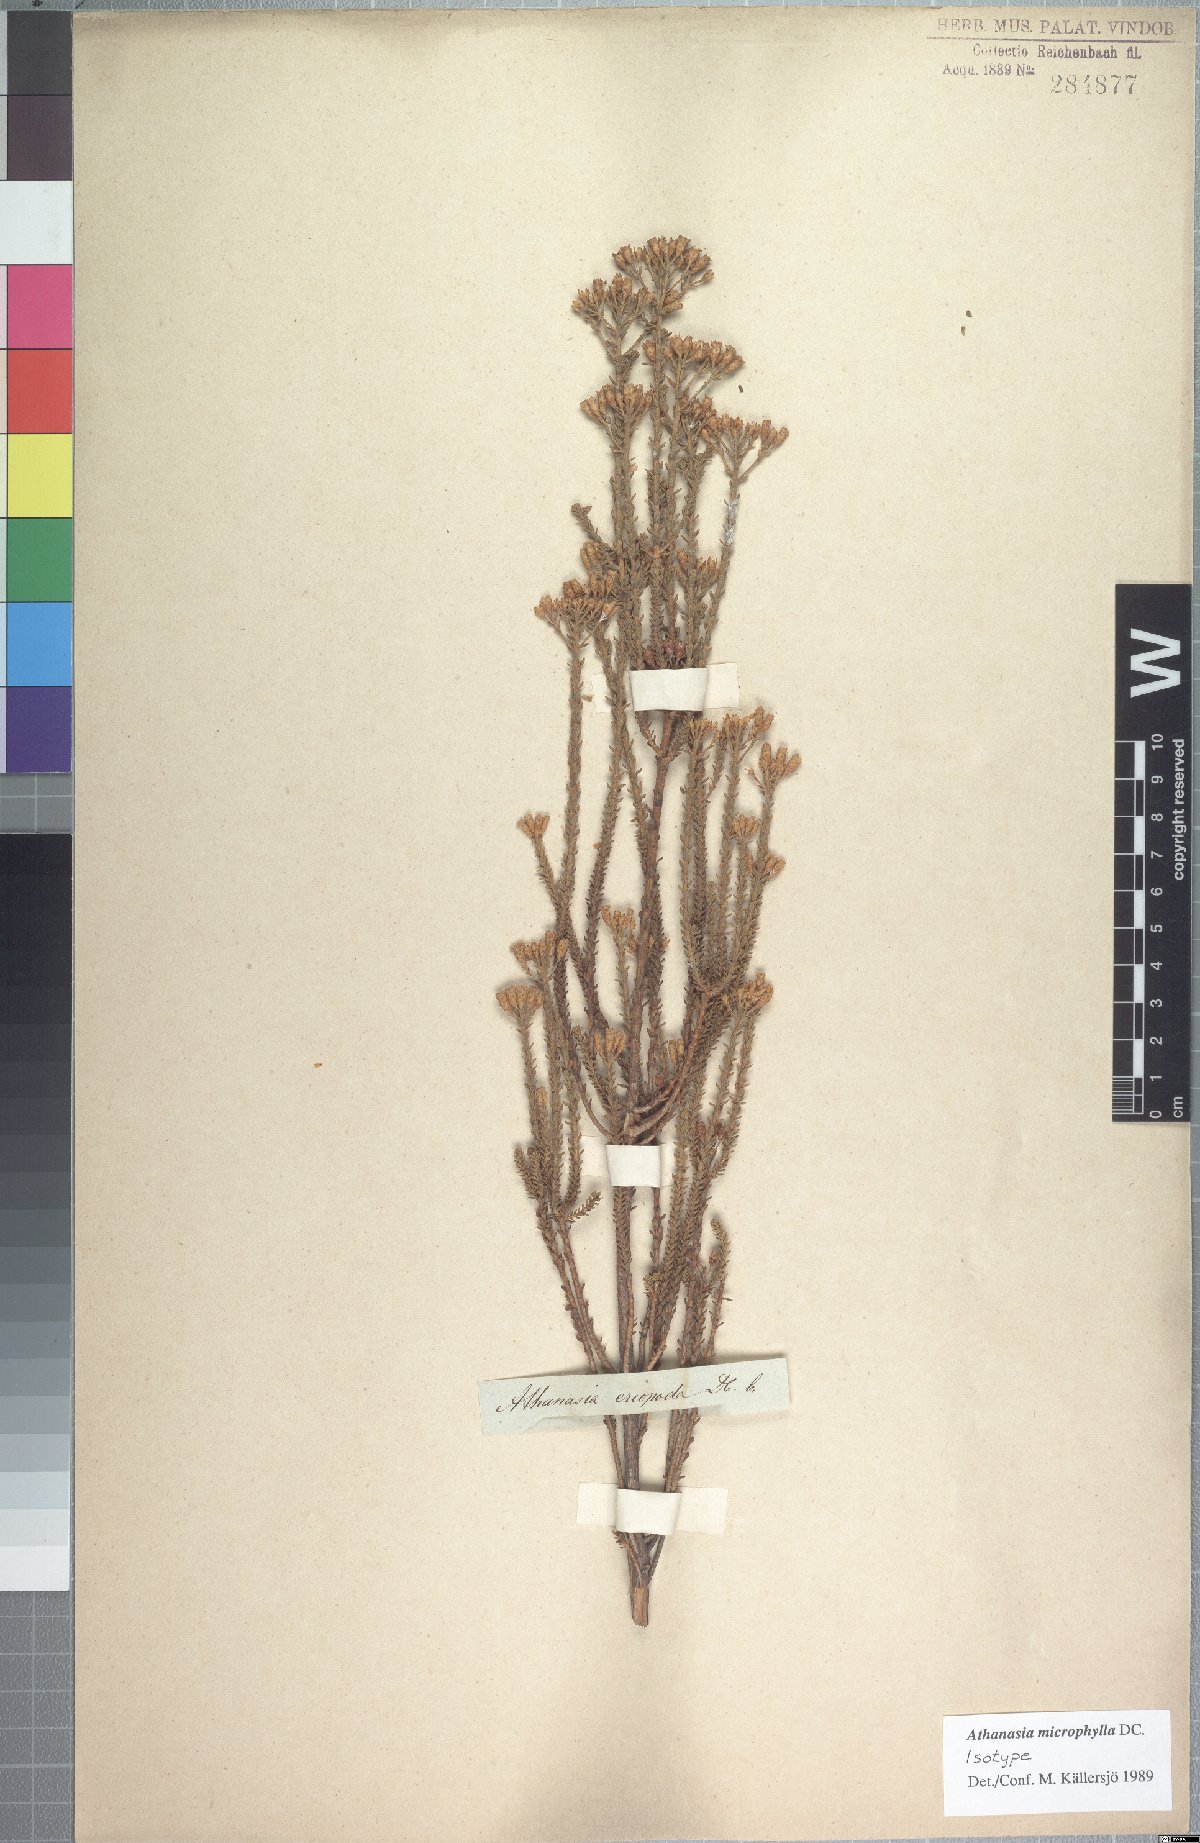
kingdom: Plantae
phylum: Tracheophyta
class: Magnoliopsida
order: Asterales
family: Asteraceae
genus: Athanasia
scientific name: Athanasia microphylla
